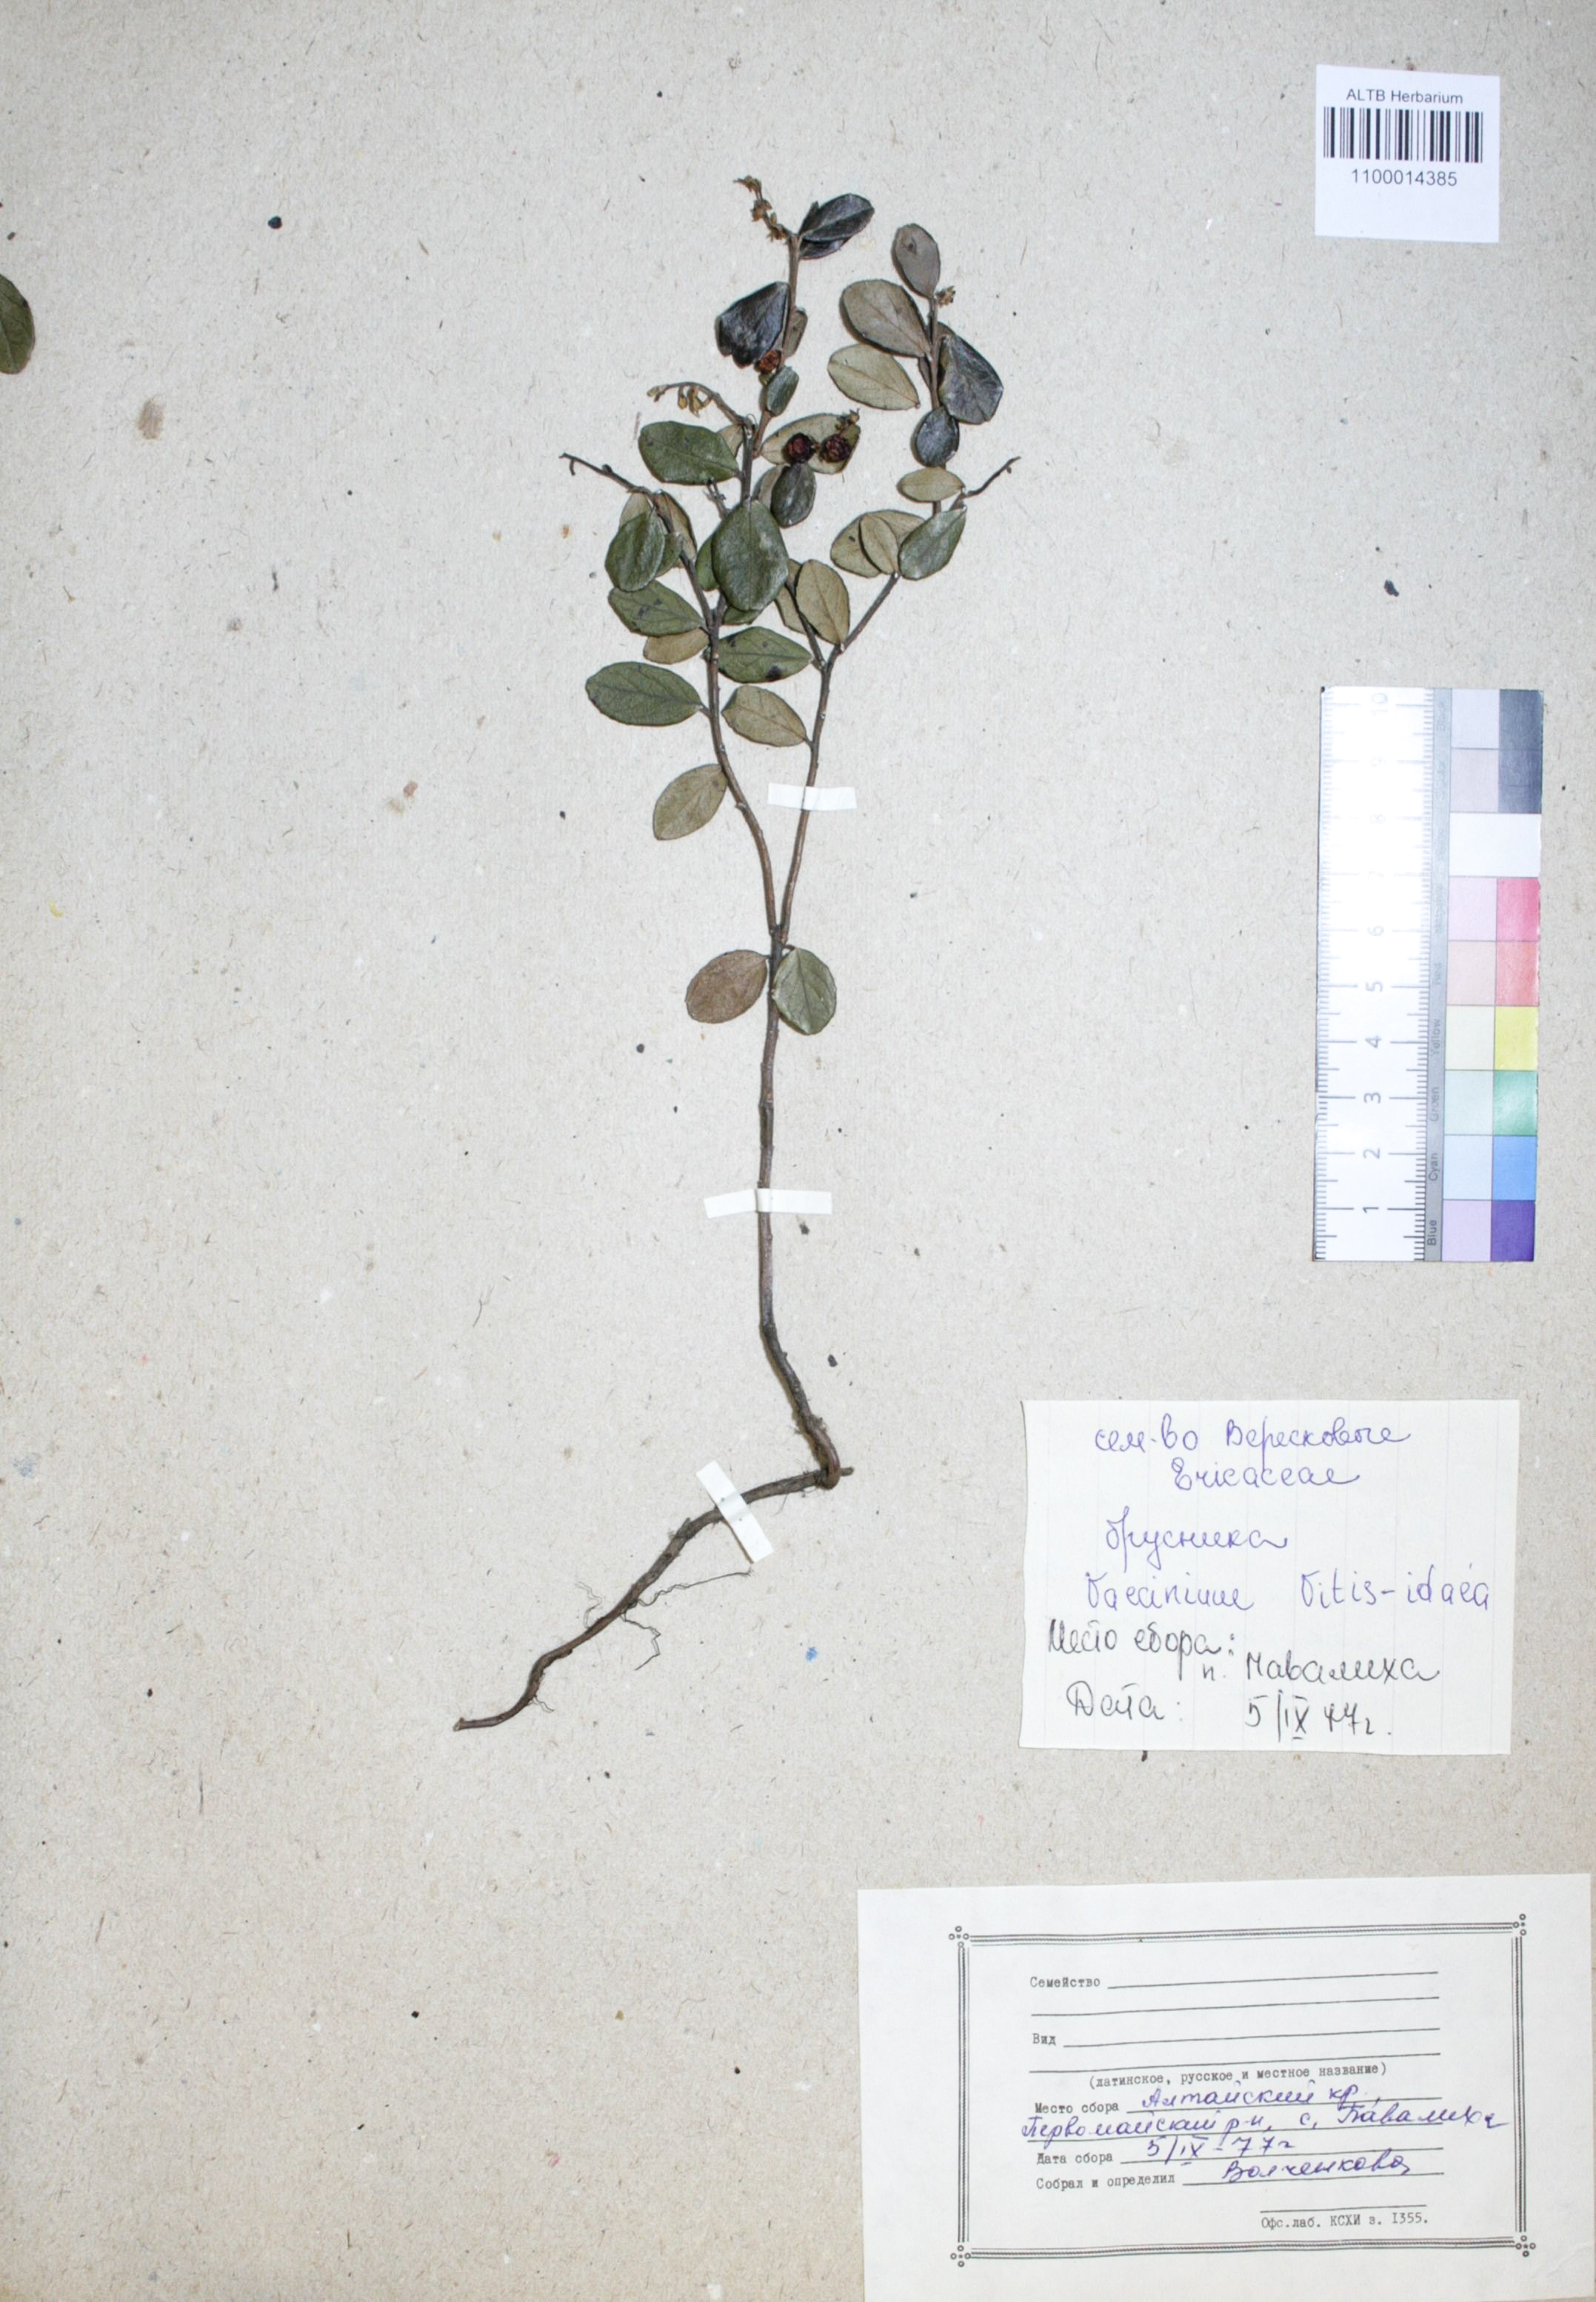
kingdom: Plantae
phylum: Tracheophyta
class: Magnoliopsida
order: Ericales
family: Ericaceae
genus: Vaccinium
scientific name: Vaccinium vitis-idaea
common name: Cowberry
